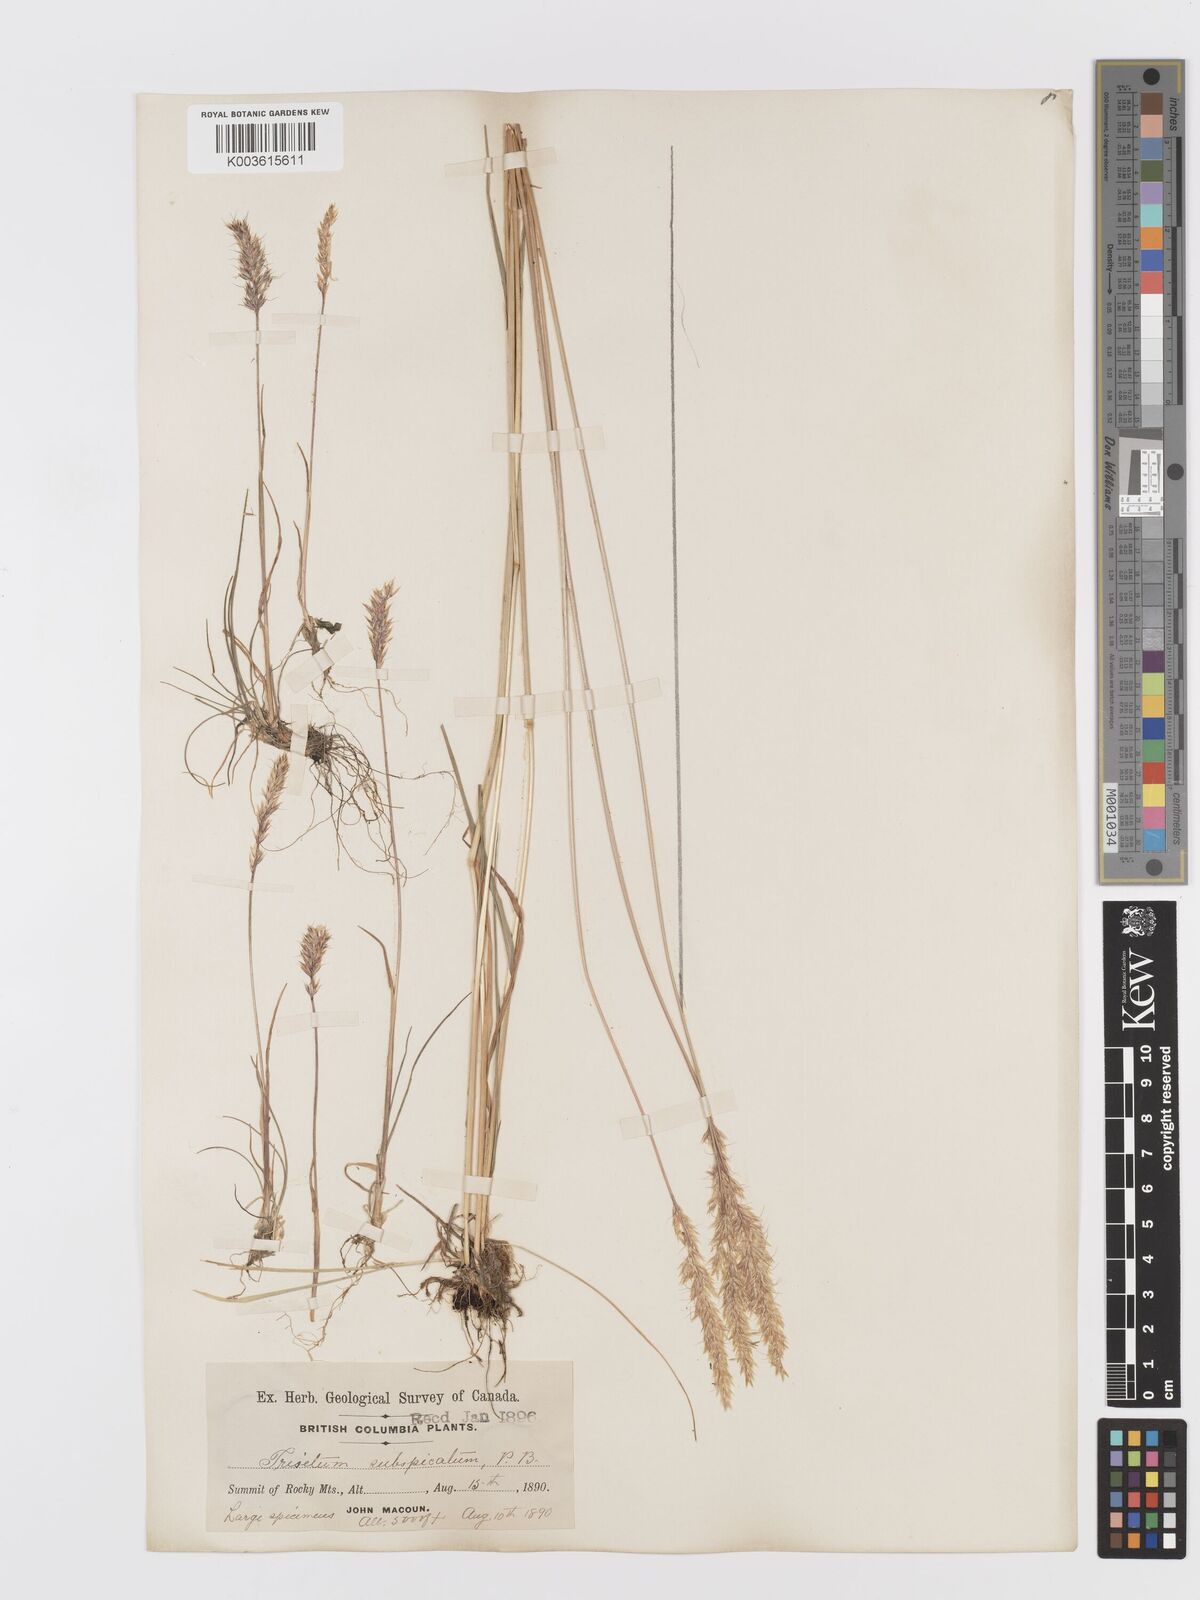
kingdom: Plantae
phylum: Tracheophyta
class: Liliopsida
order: Poales
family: Poaceae
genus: Koeleria
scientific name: Koeleria spicata
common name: Mountain trisetum
